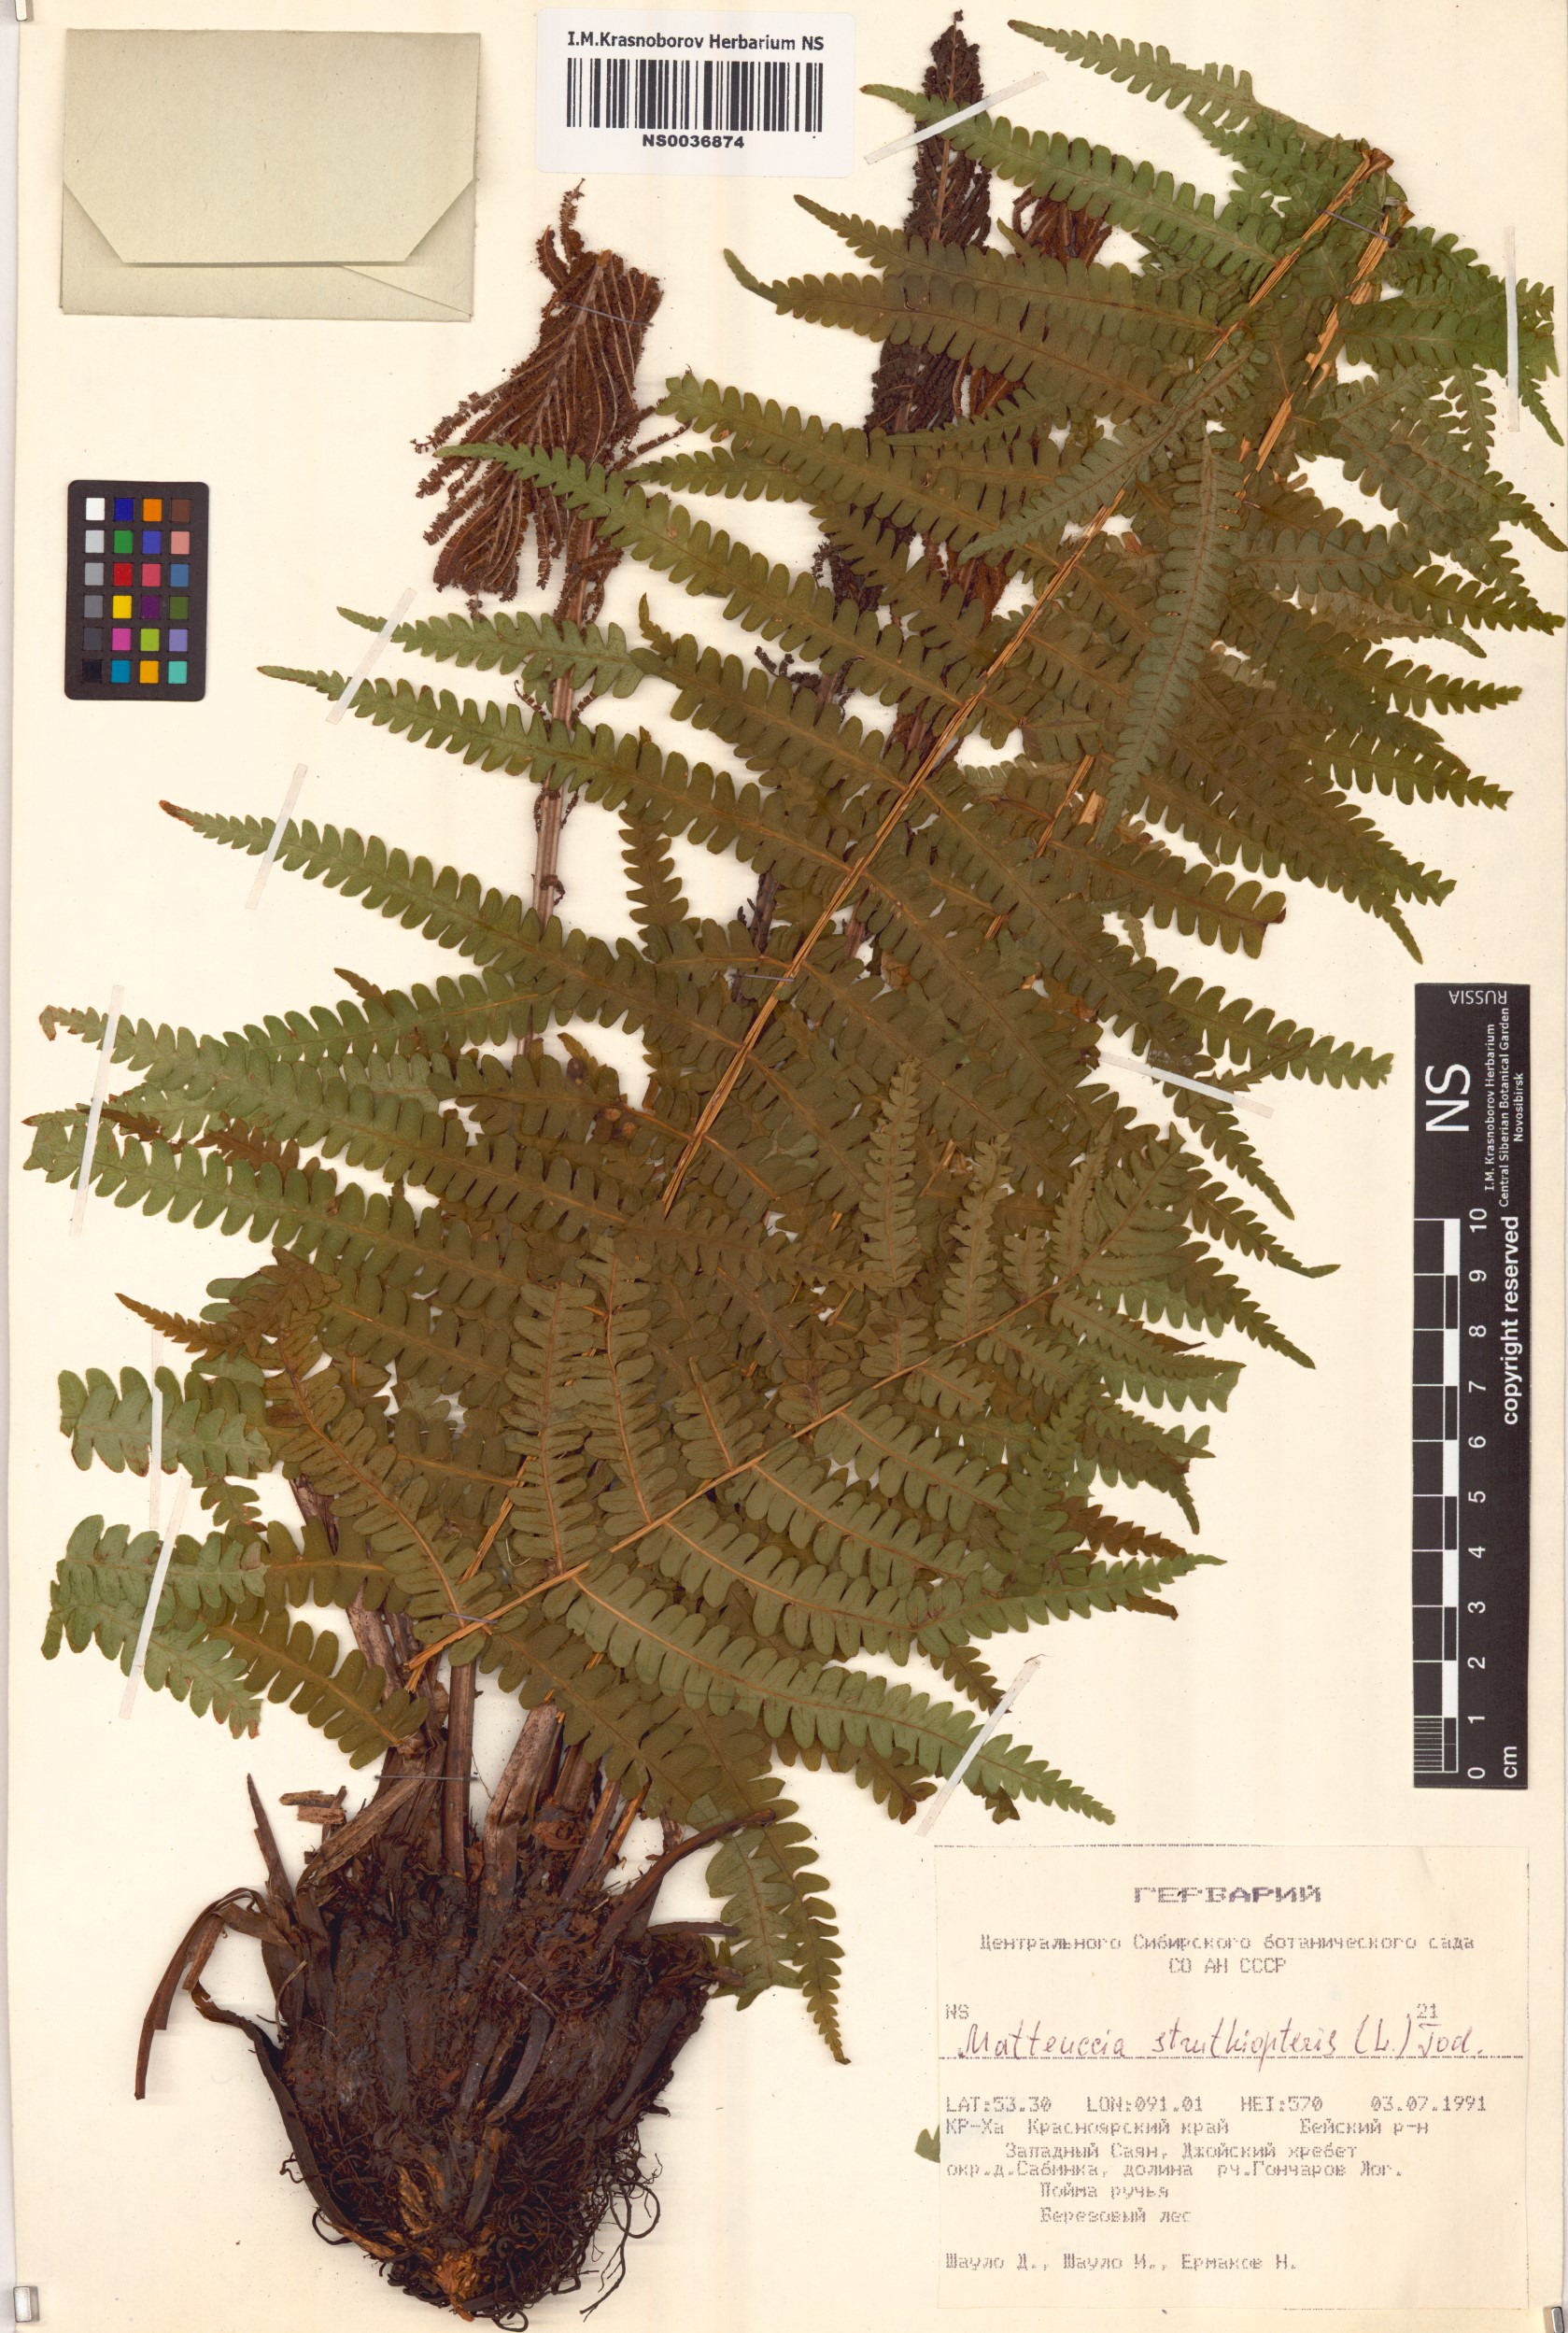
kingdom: Plantae
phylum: Tracheophyta
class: Polypodiopsida
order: Polypodiales
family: Onocleaceae
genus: Matteuccia
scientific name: Matteuccia struthiopteris
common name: Ostrich fern
